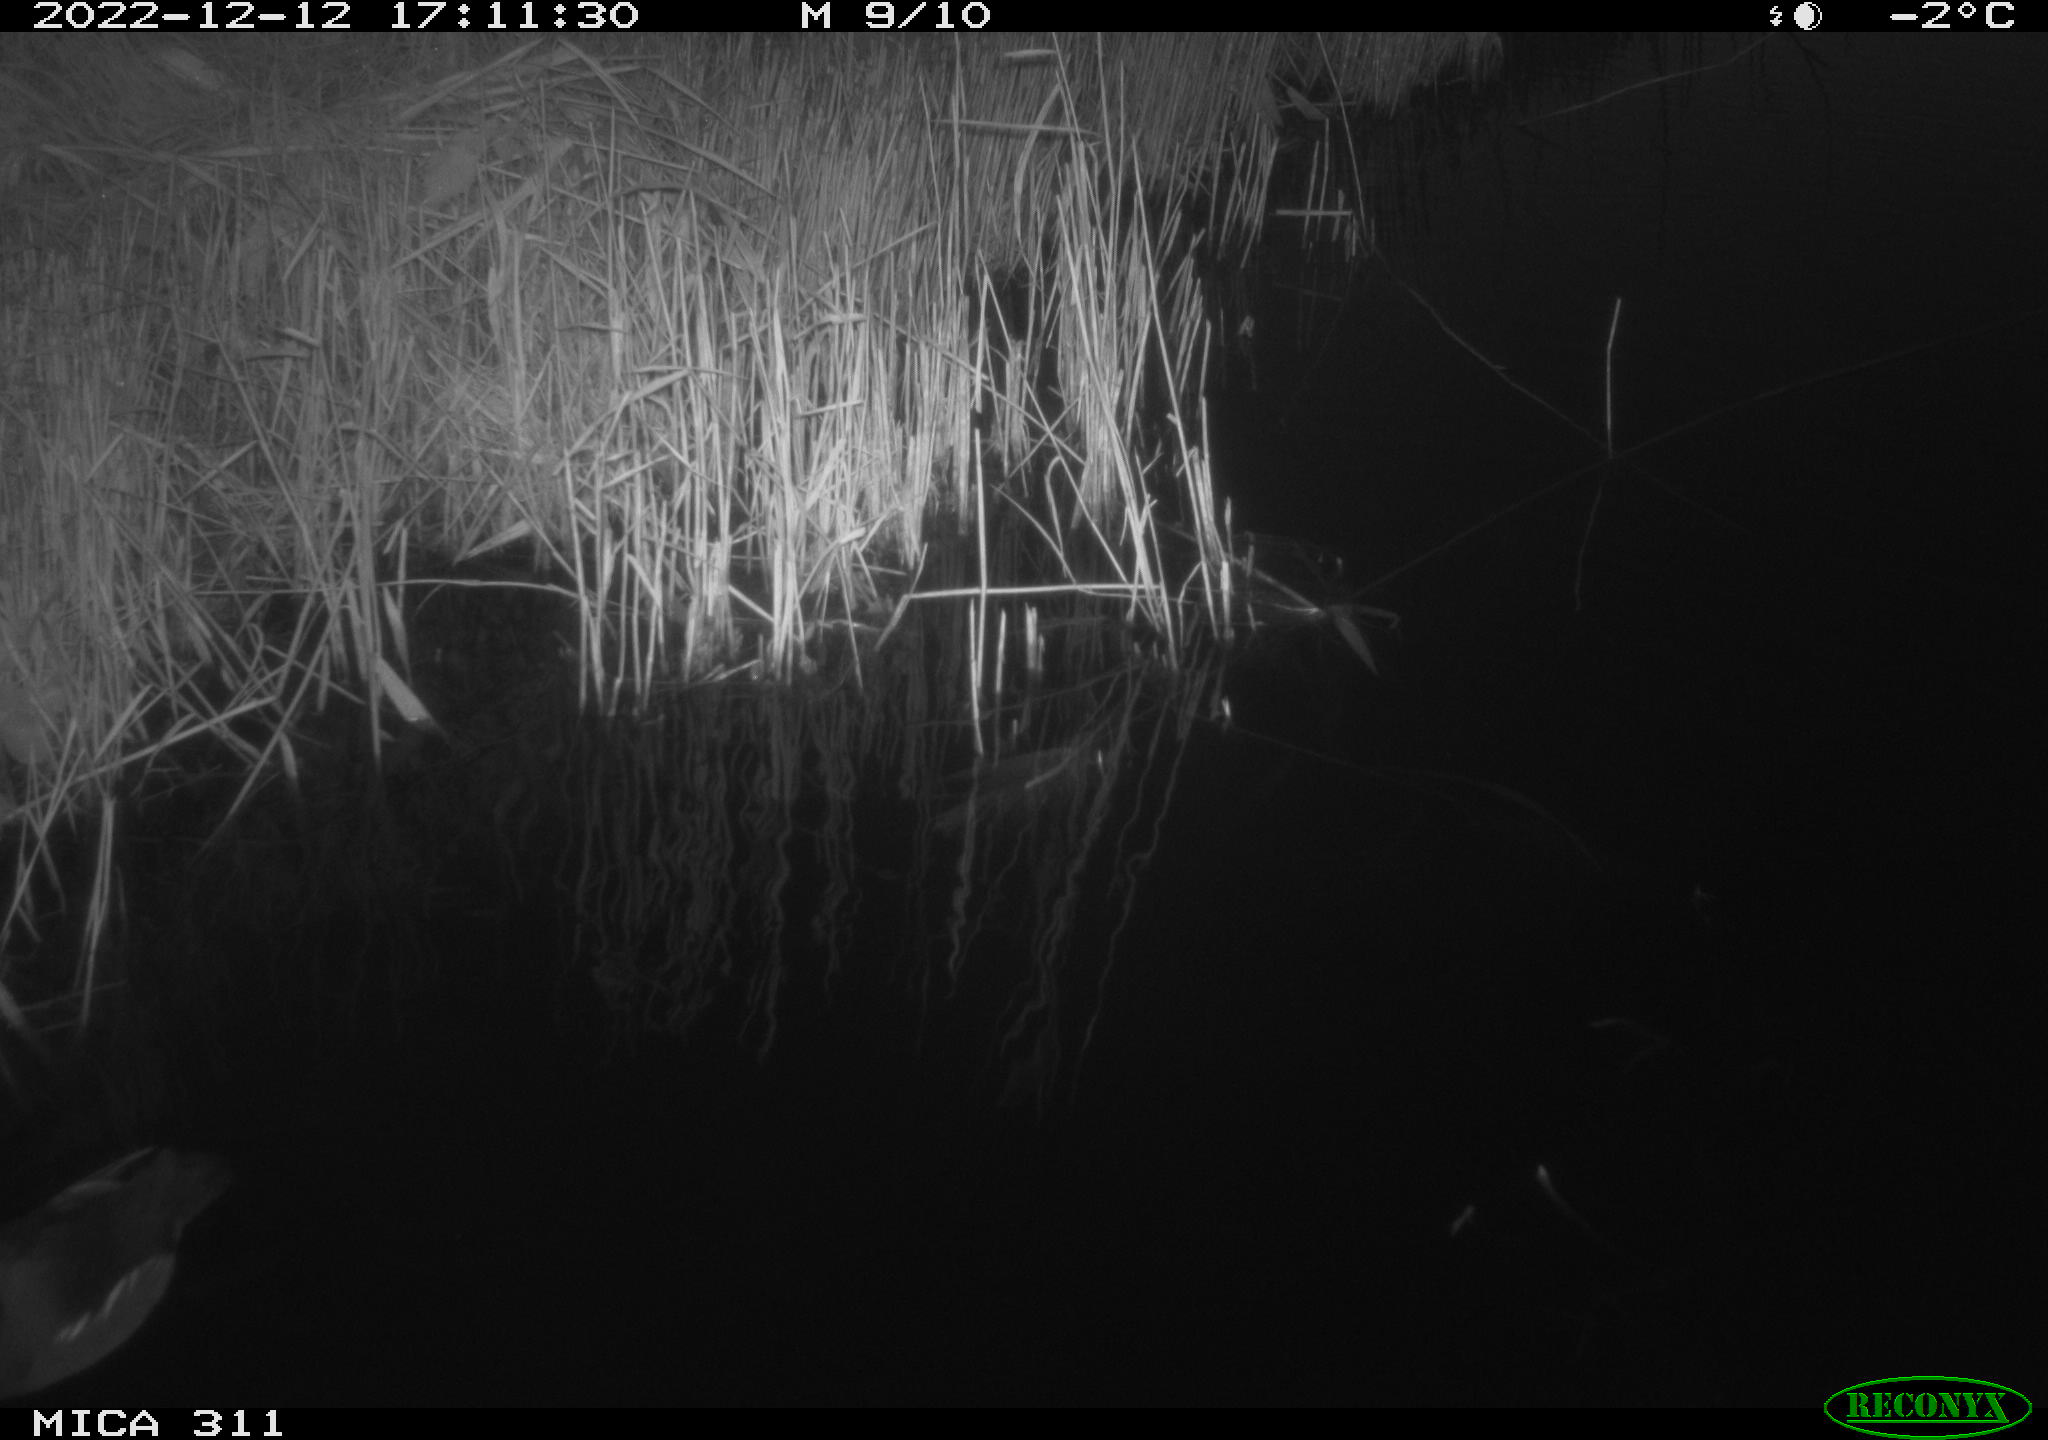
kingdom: Animalia
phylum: Chordata
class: Aves
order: Gruiformes
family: Rallidae
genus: Gallinula
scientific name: Gallinula chloropus
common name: Common moorhen
